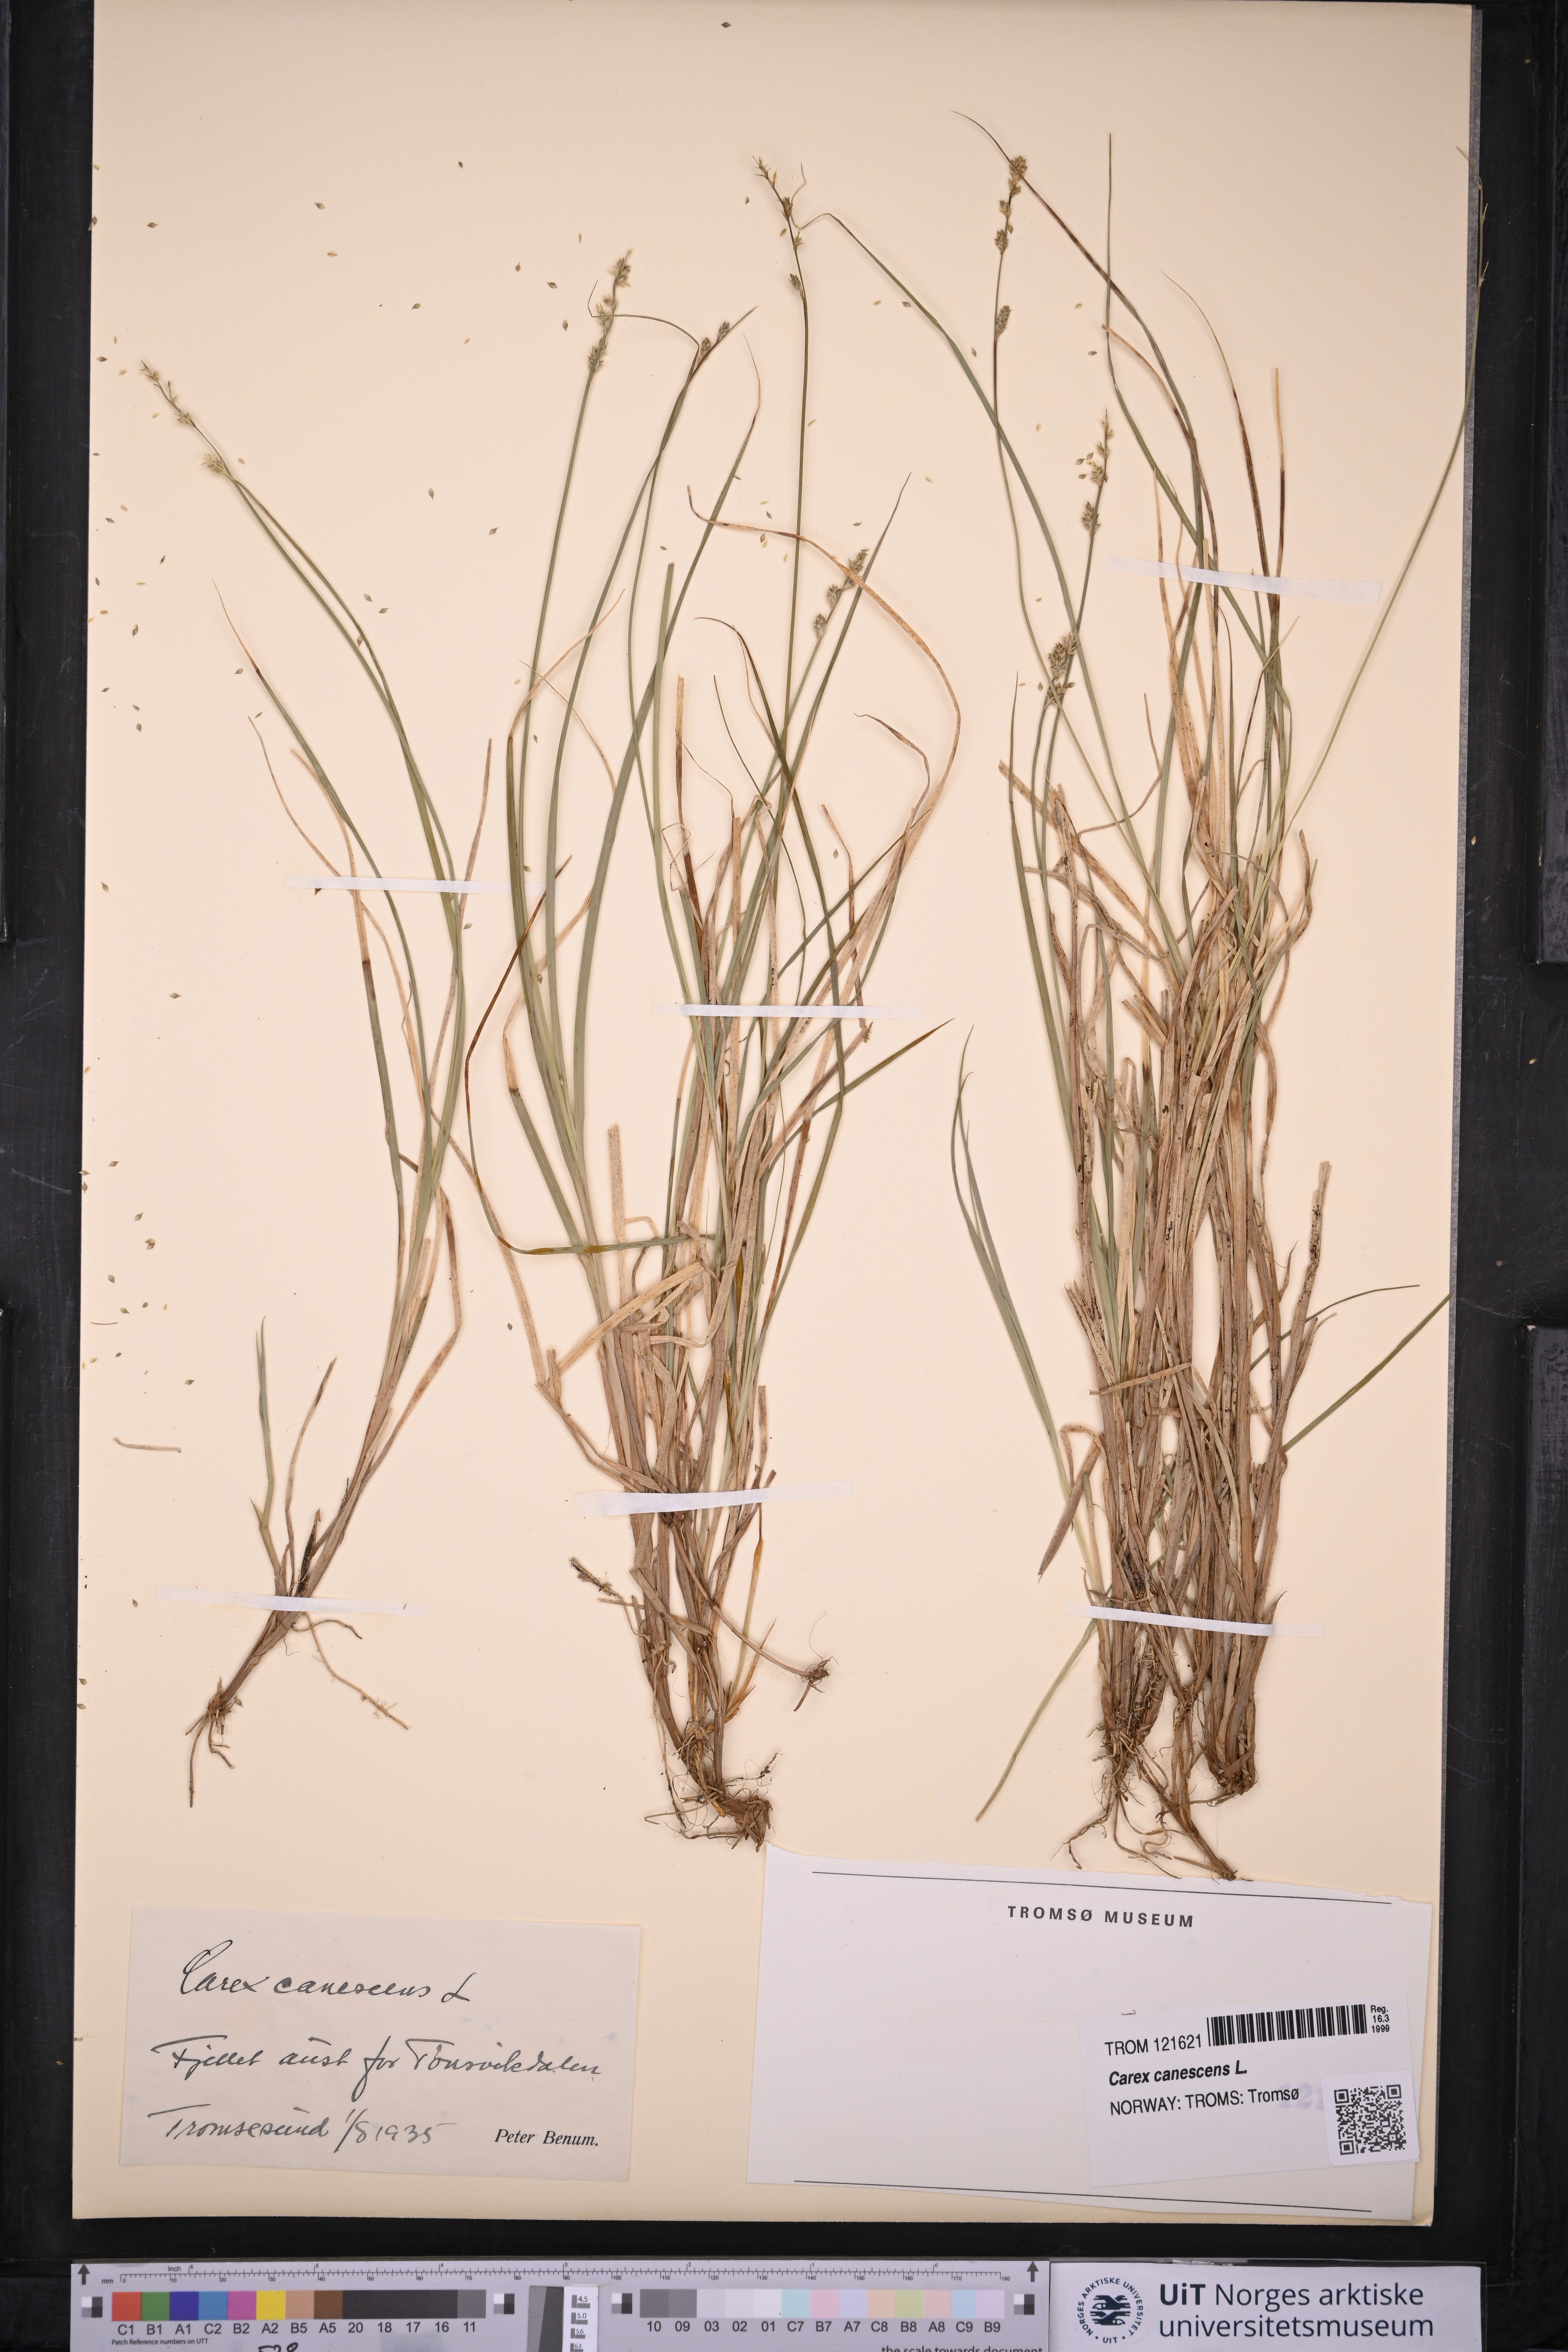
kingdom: Plantae
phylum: Tracheophyta
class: Liliopsida
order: Poales
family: Cyperaceae
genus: Carex
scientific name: Carex canescens
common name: White sedge
